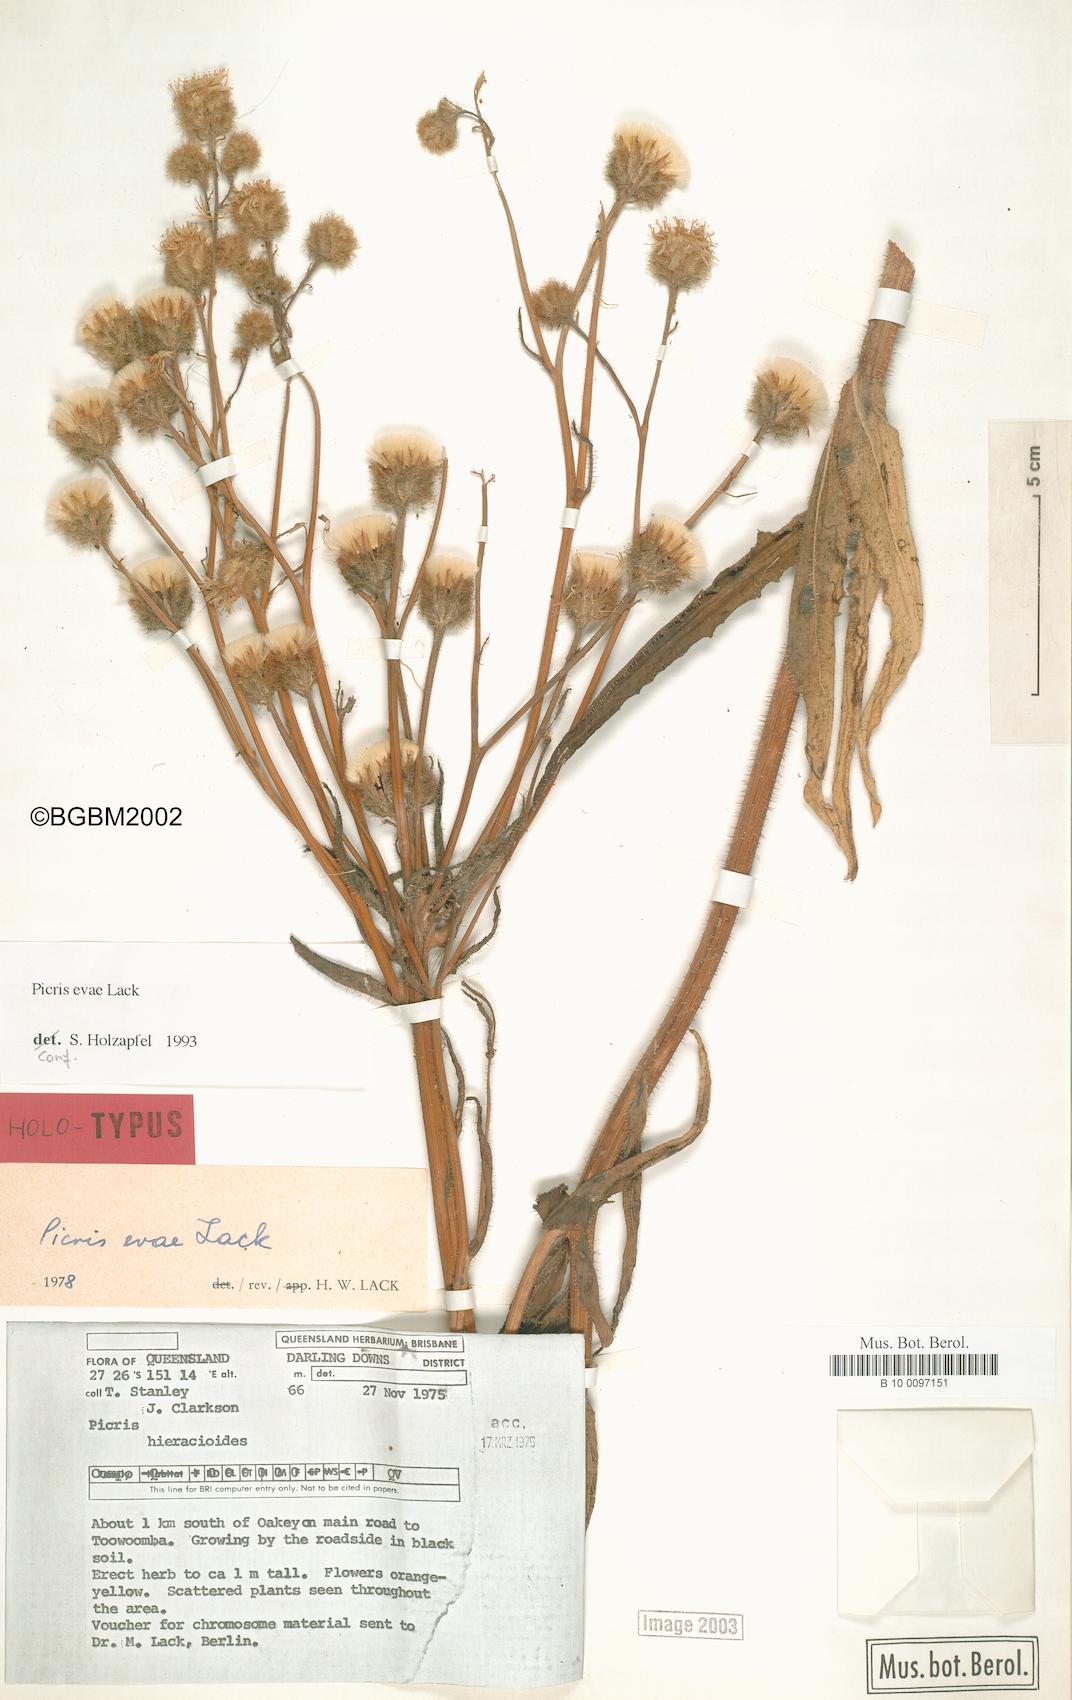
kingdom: Plantae
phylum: Tracheophyta
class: Magnoliopsida
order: Asterales
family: Asteraceae
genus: Picris
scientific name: Picris evae
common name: Hawkweed
